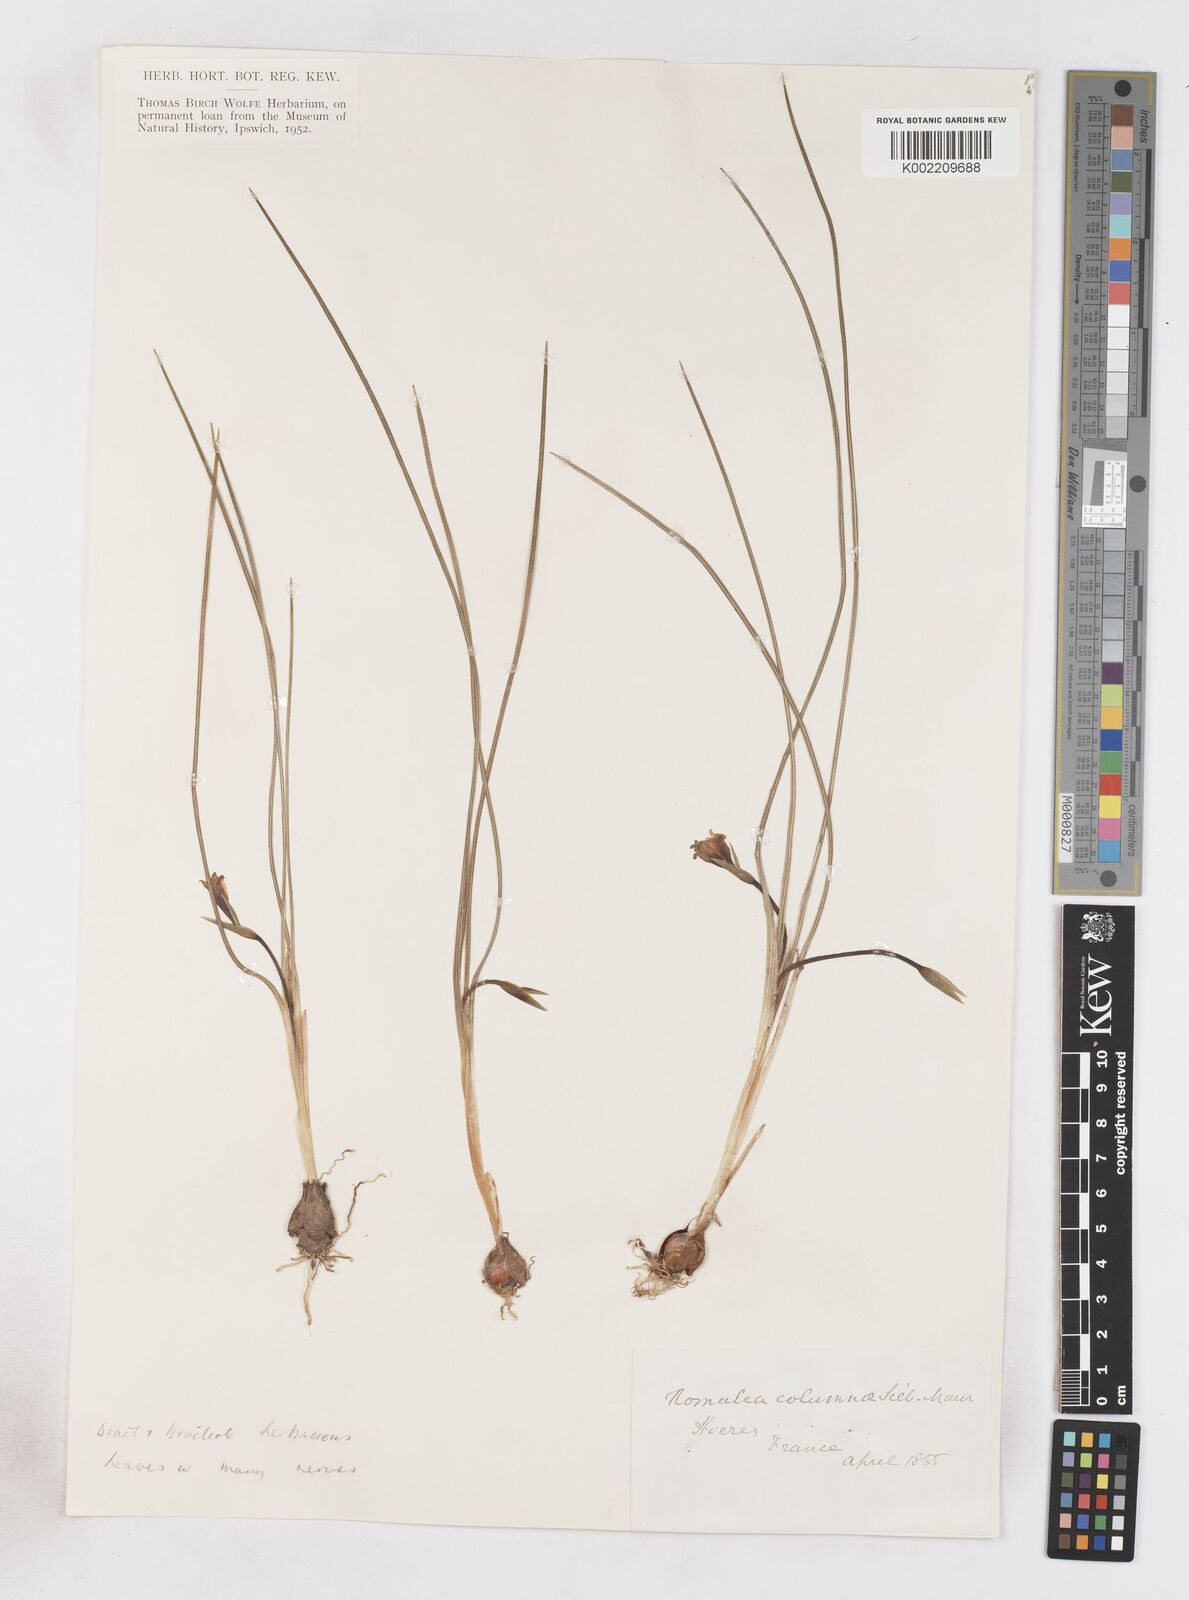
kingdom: Plantae
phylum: Tracheophyta
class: Liliopsida
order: Asparagales
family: Iridaceae
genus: Romulea
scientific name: Romulea ramiflora
